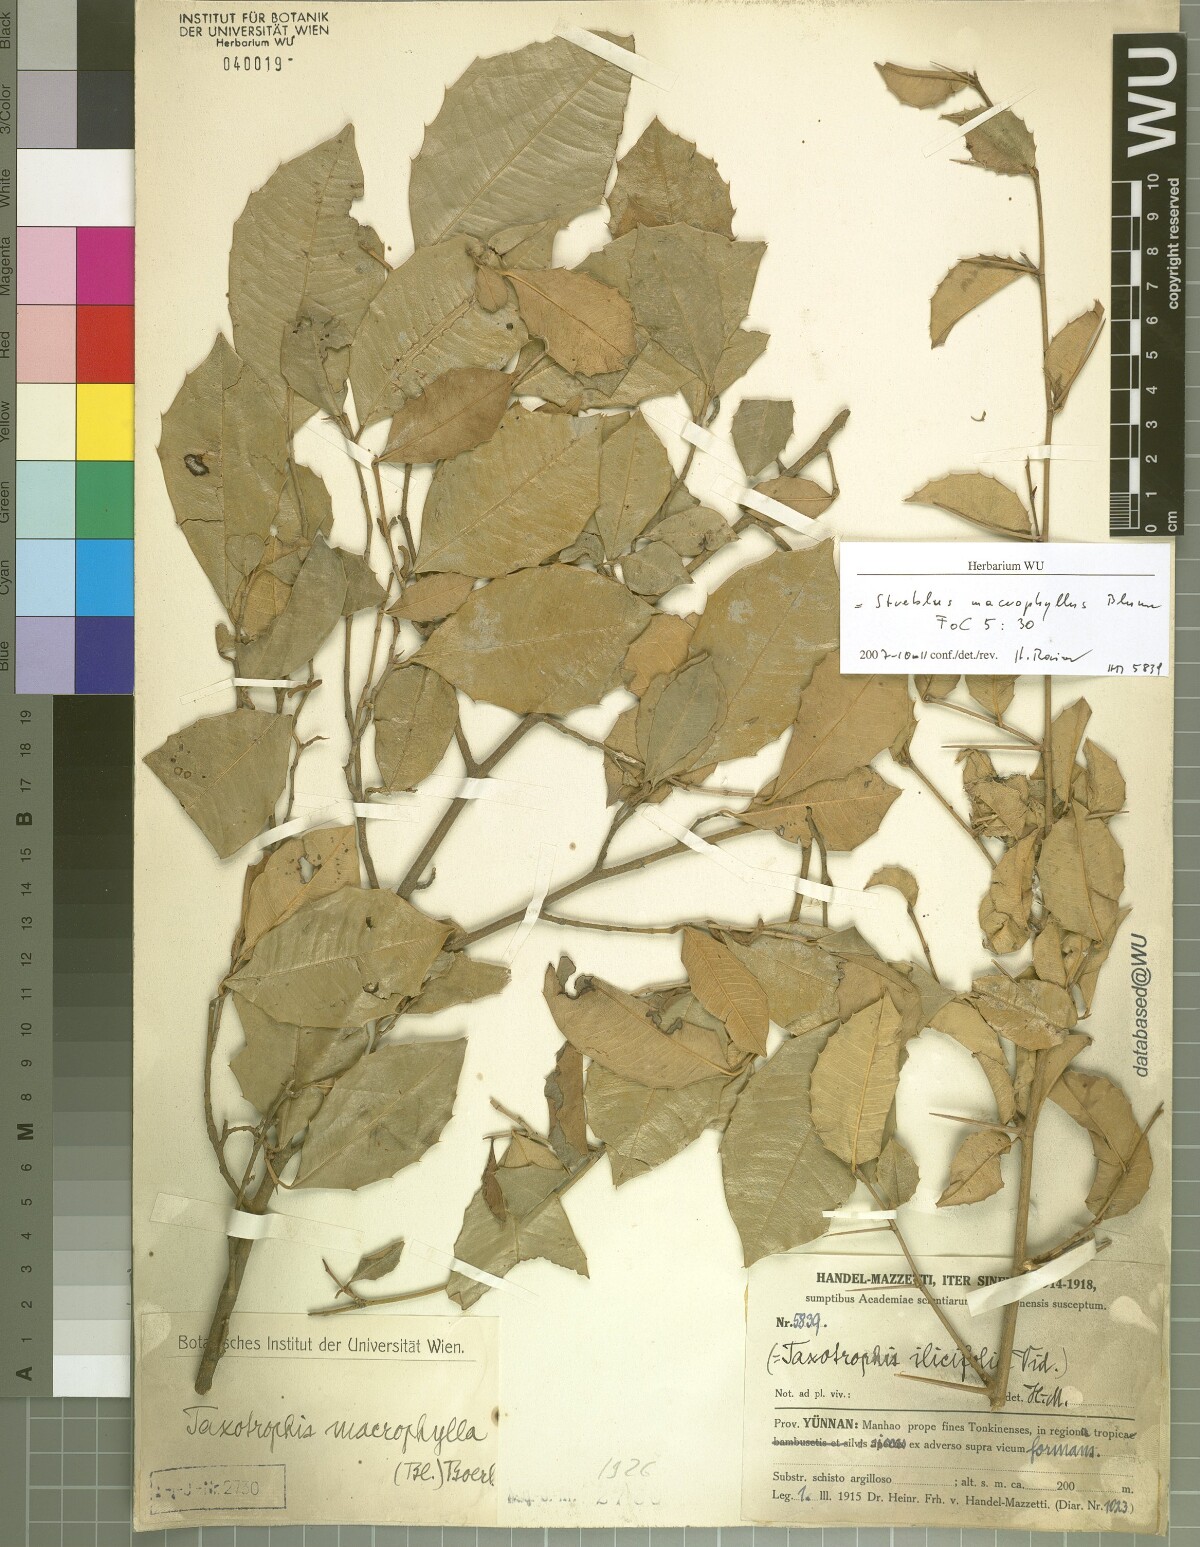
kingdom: Plantae
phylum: Tracheophyta
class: Magnoliopsida
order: Rosales
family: Moraceae
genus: Taxotrophis
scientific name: Taxotrophis macrophylla
